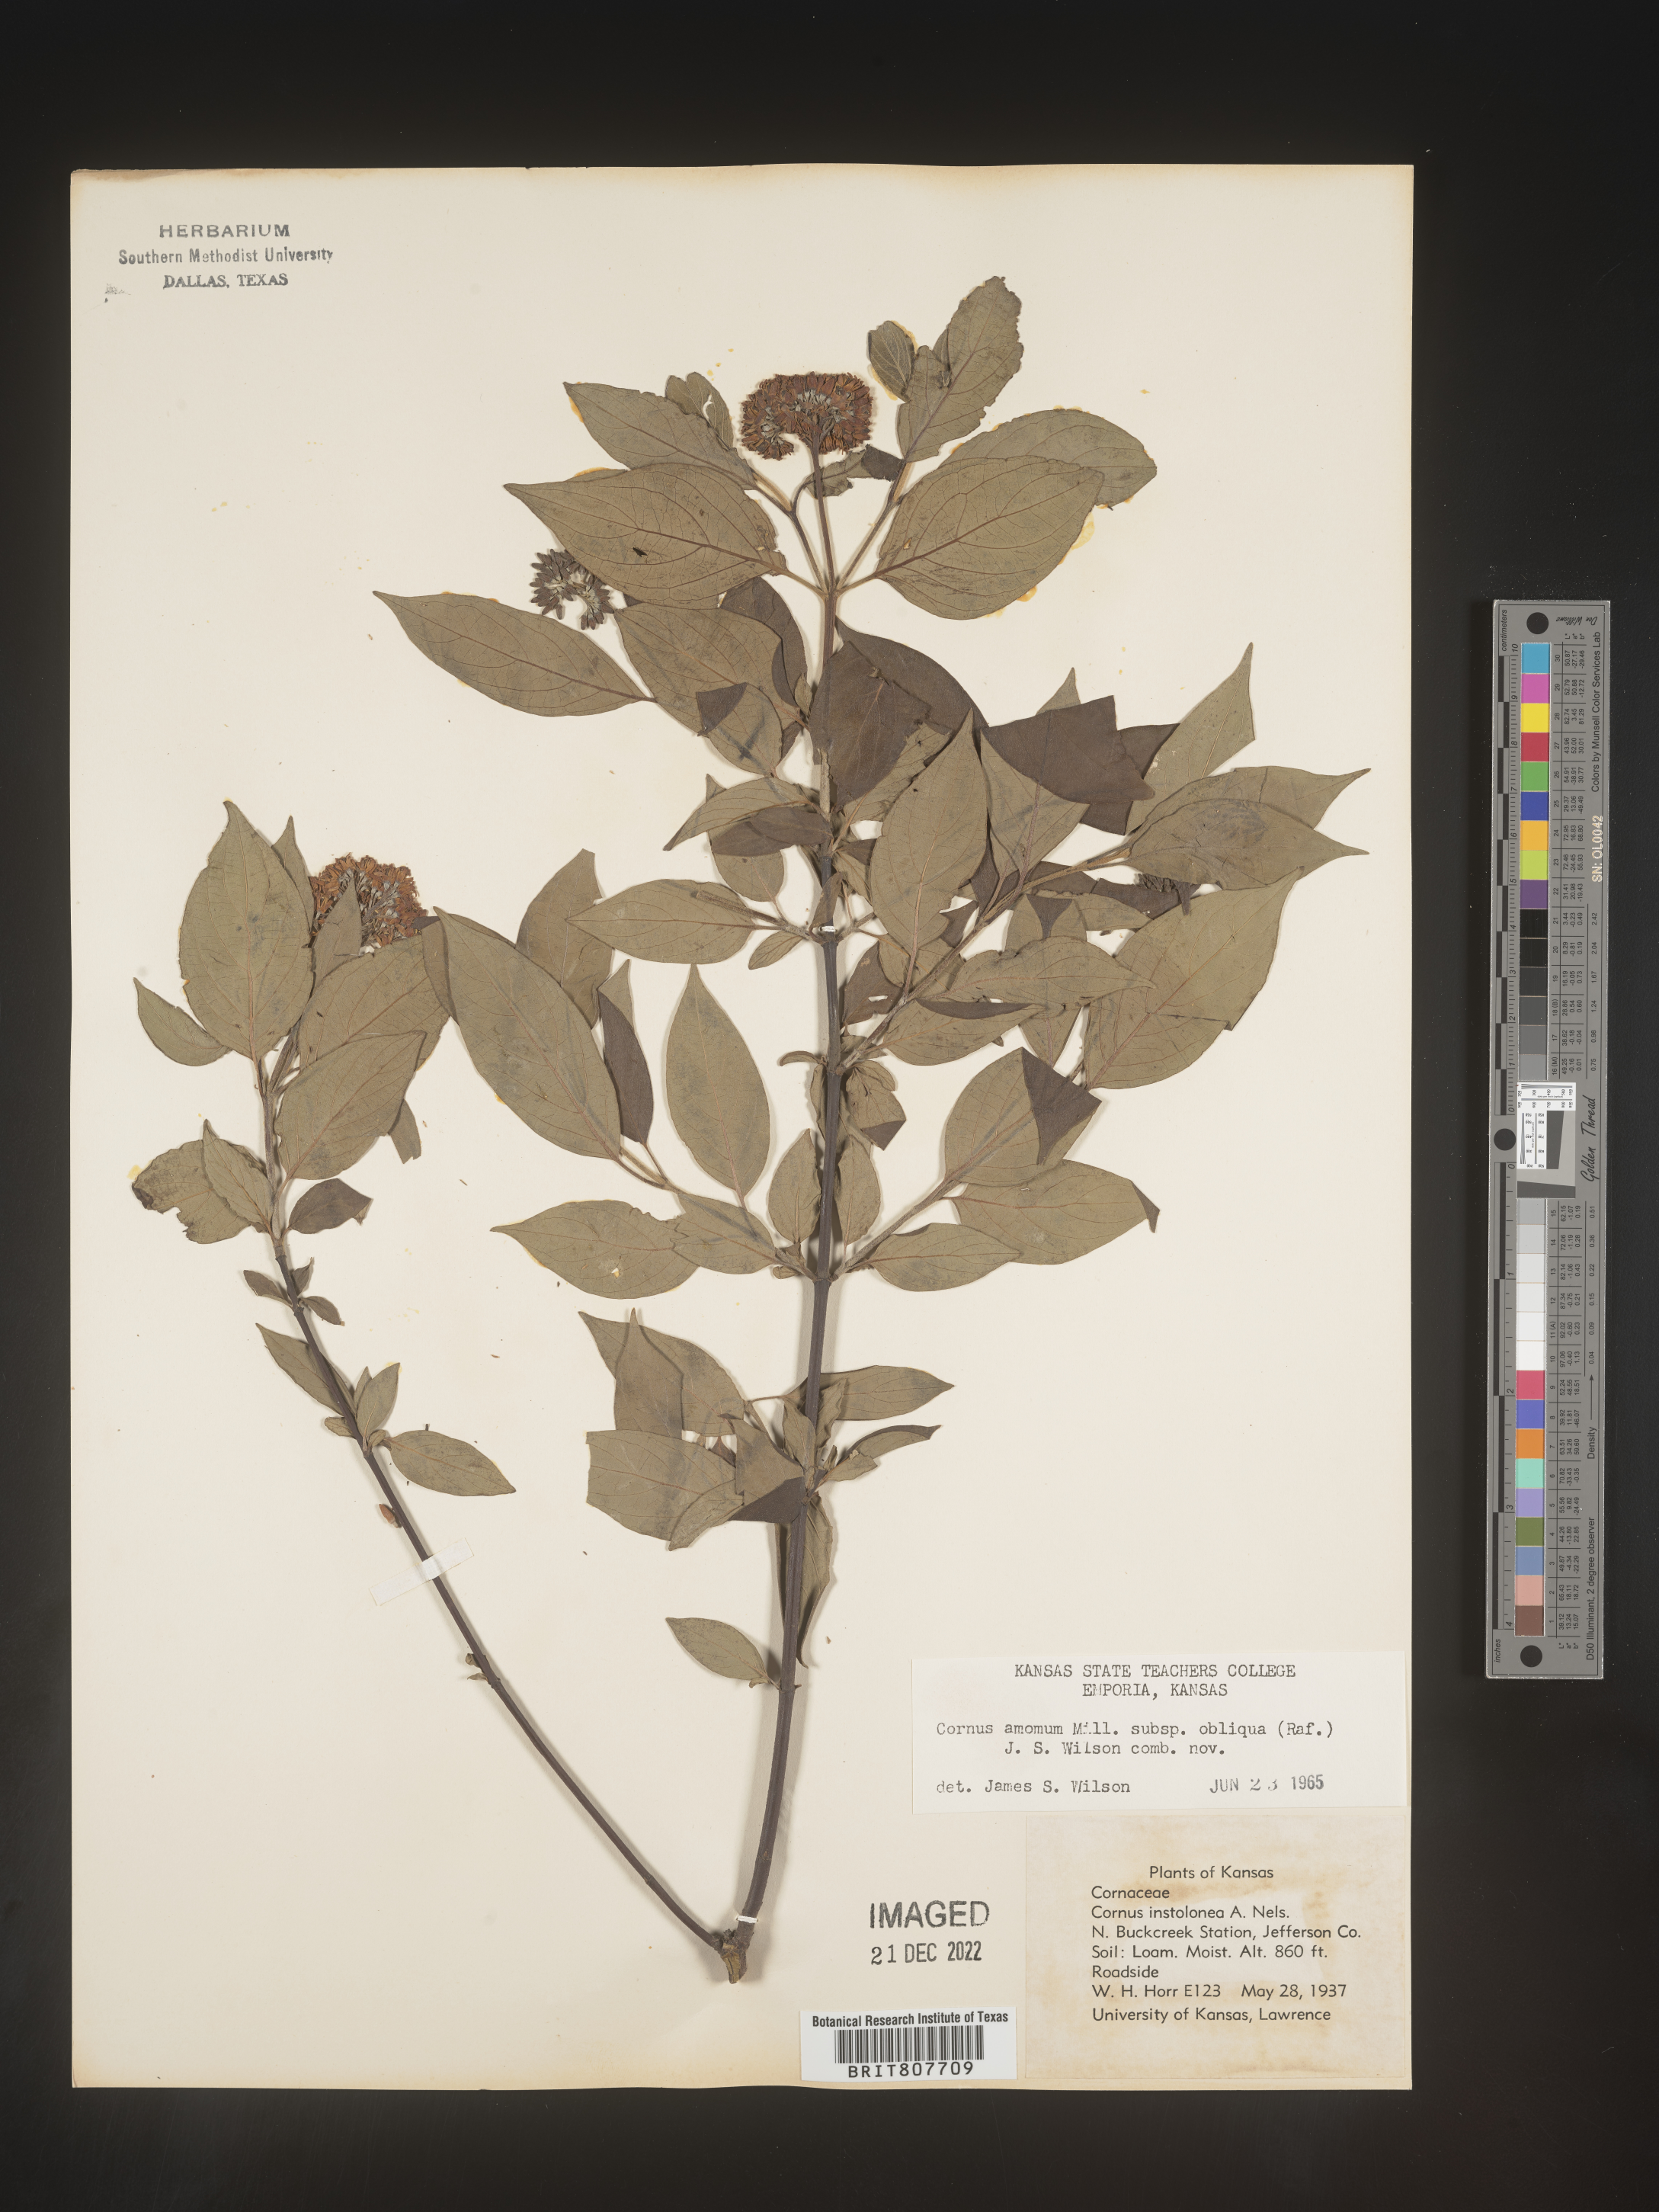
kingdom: Plantae
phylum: Tracheophyta
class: Magnoliopsida
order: Cornales
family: Cornaceae
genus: Cornus
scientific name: Cornus obliqua
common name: Pale dogwood
